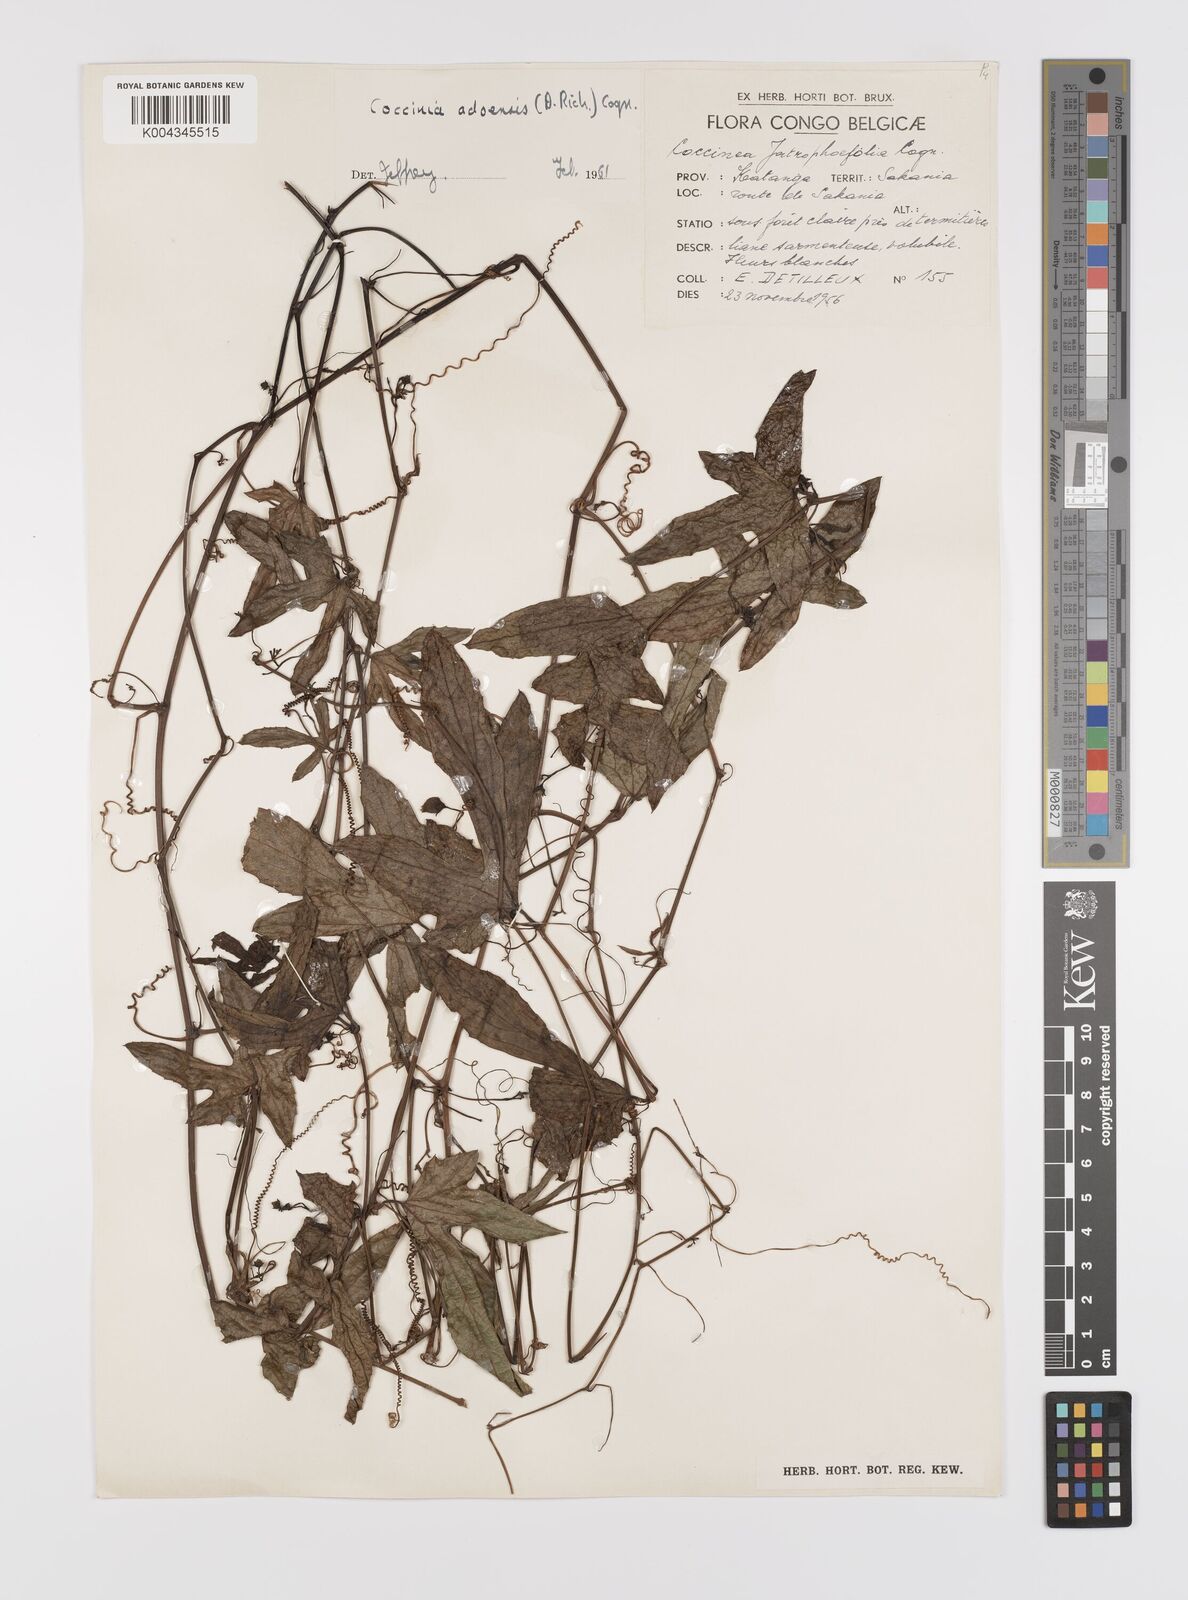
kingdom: Plantae
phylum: Tracheophyta
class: Magnoliopsida
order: Cucurbitales
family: Cucurbitaceae
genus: Coccinia
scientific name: Coccinia adoensis
